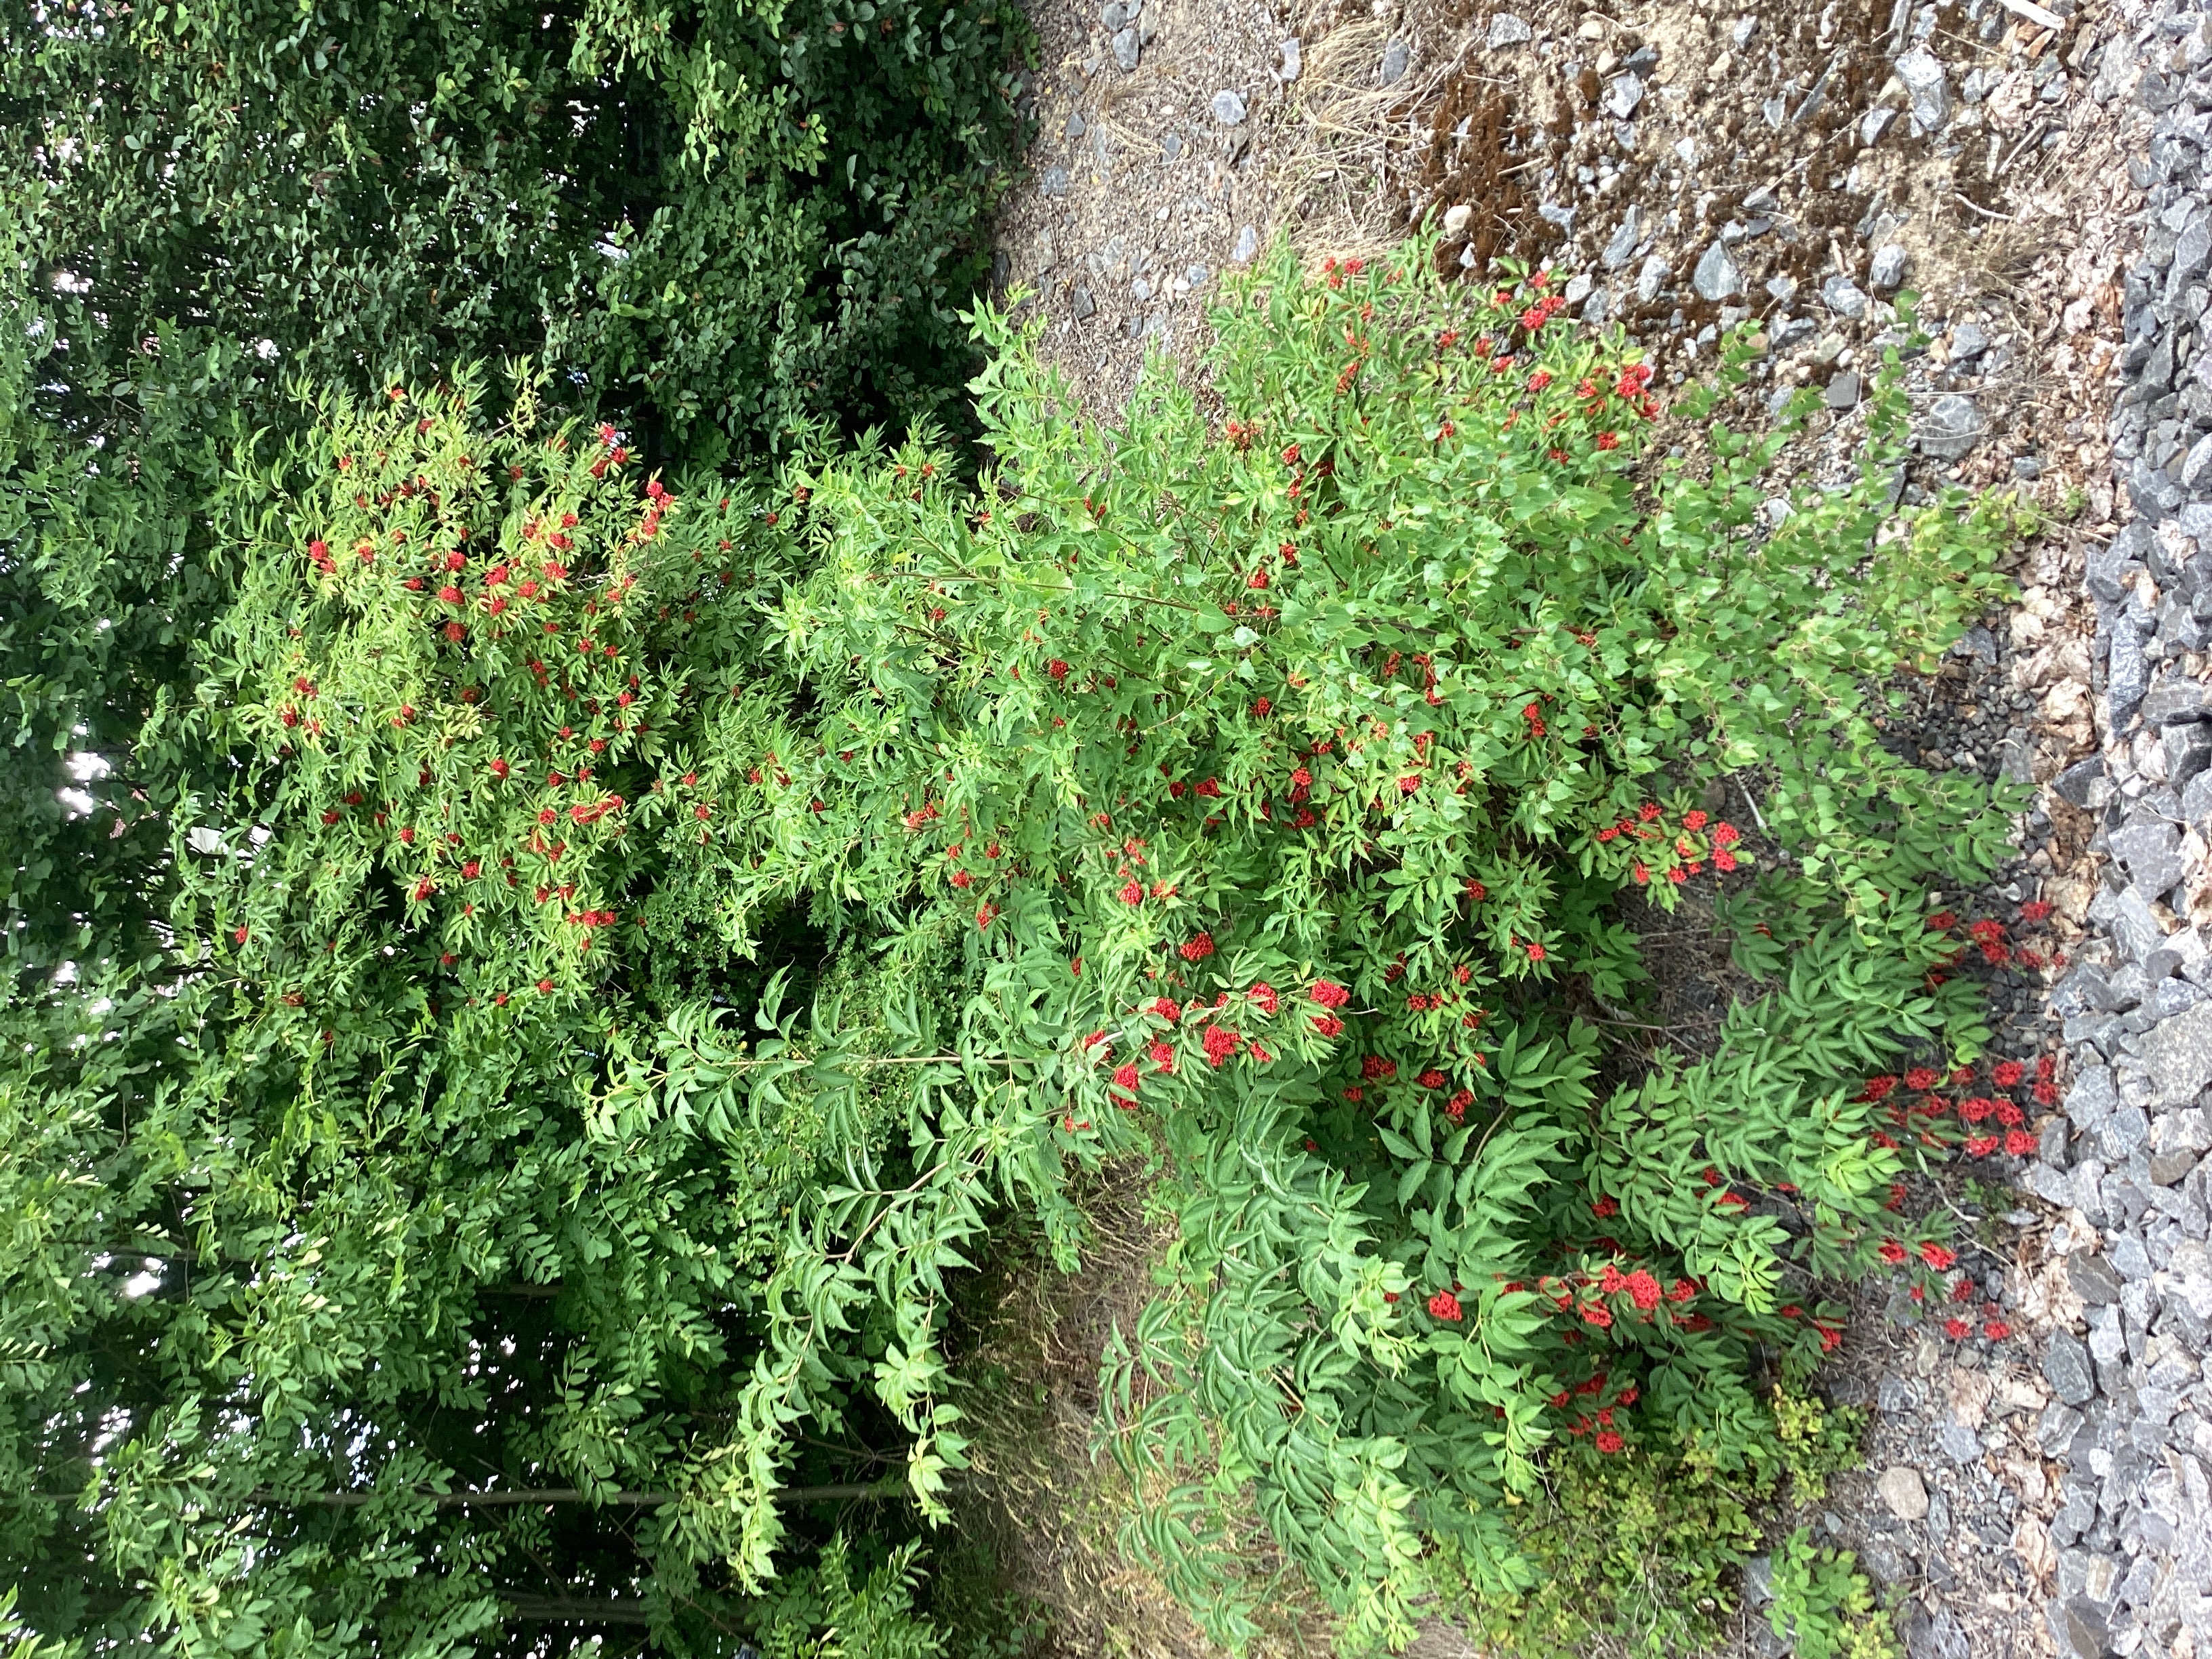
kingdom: Plantae
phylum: Tracheophyta
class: Magnoliopsida
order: Dipsacales
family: Viburnaceae
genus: Sambucus
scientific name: Sambucus racemosa
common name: rødhyll
